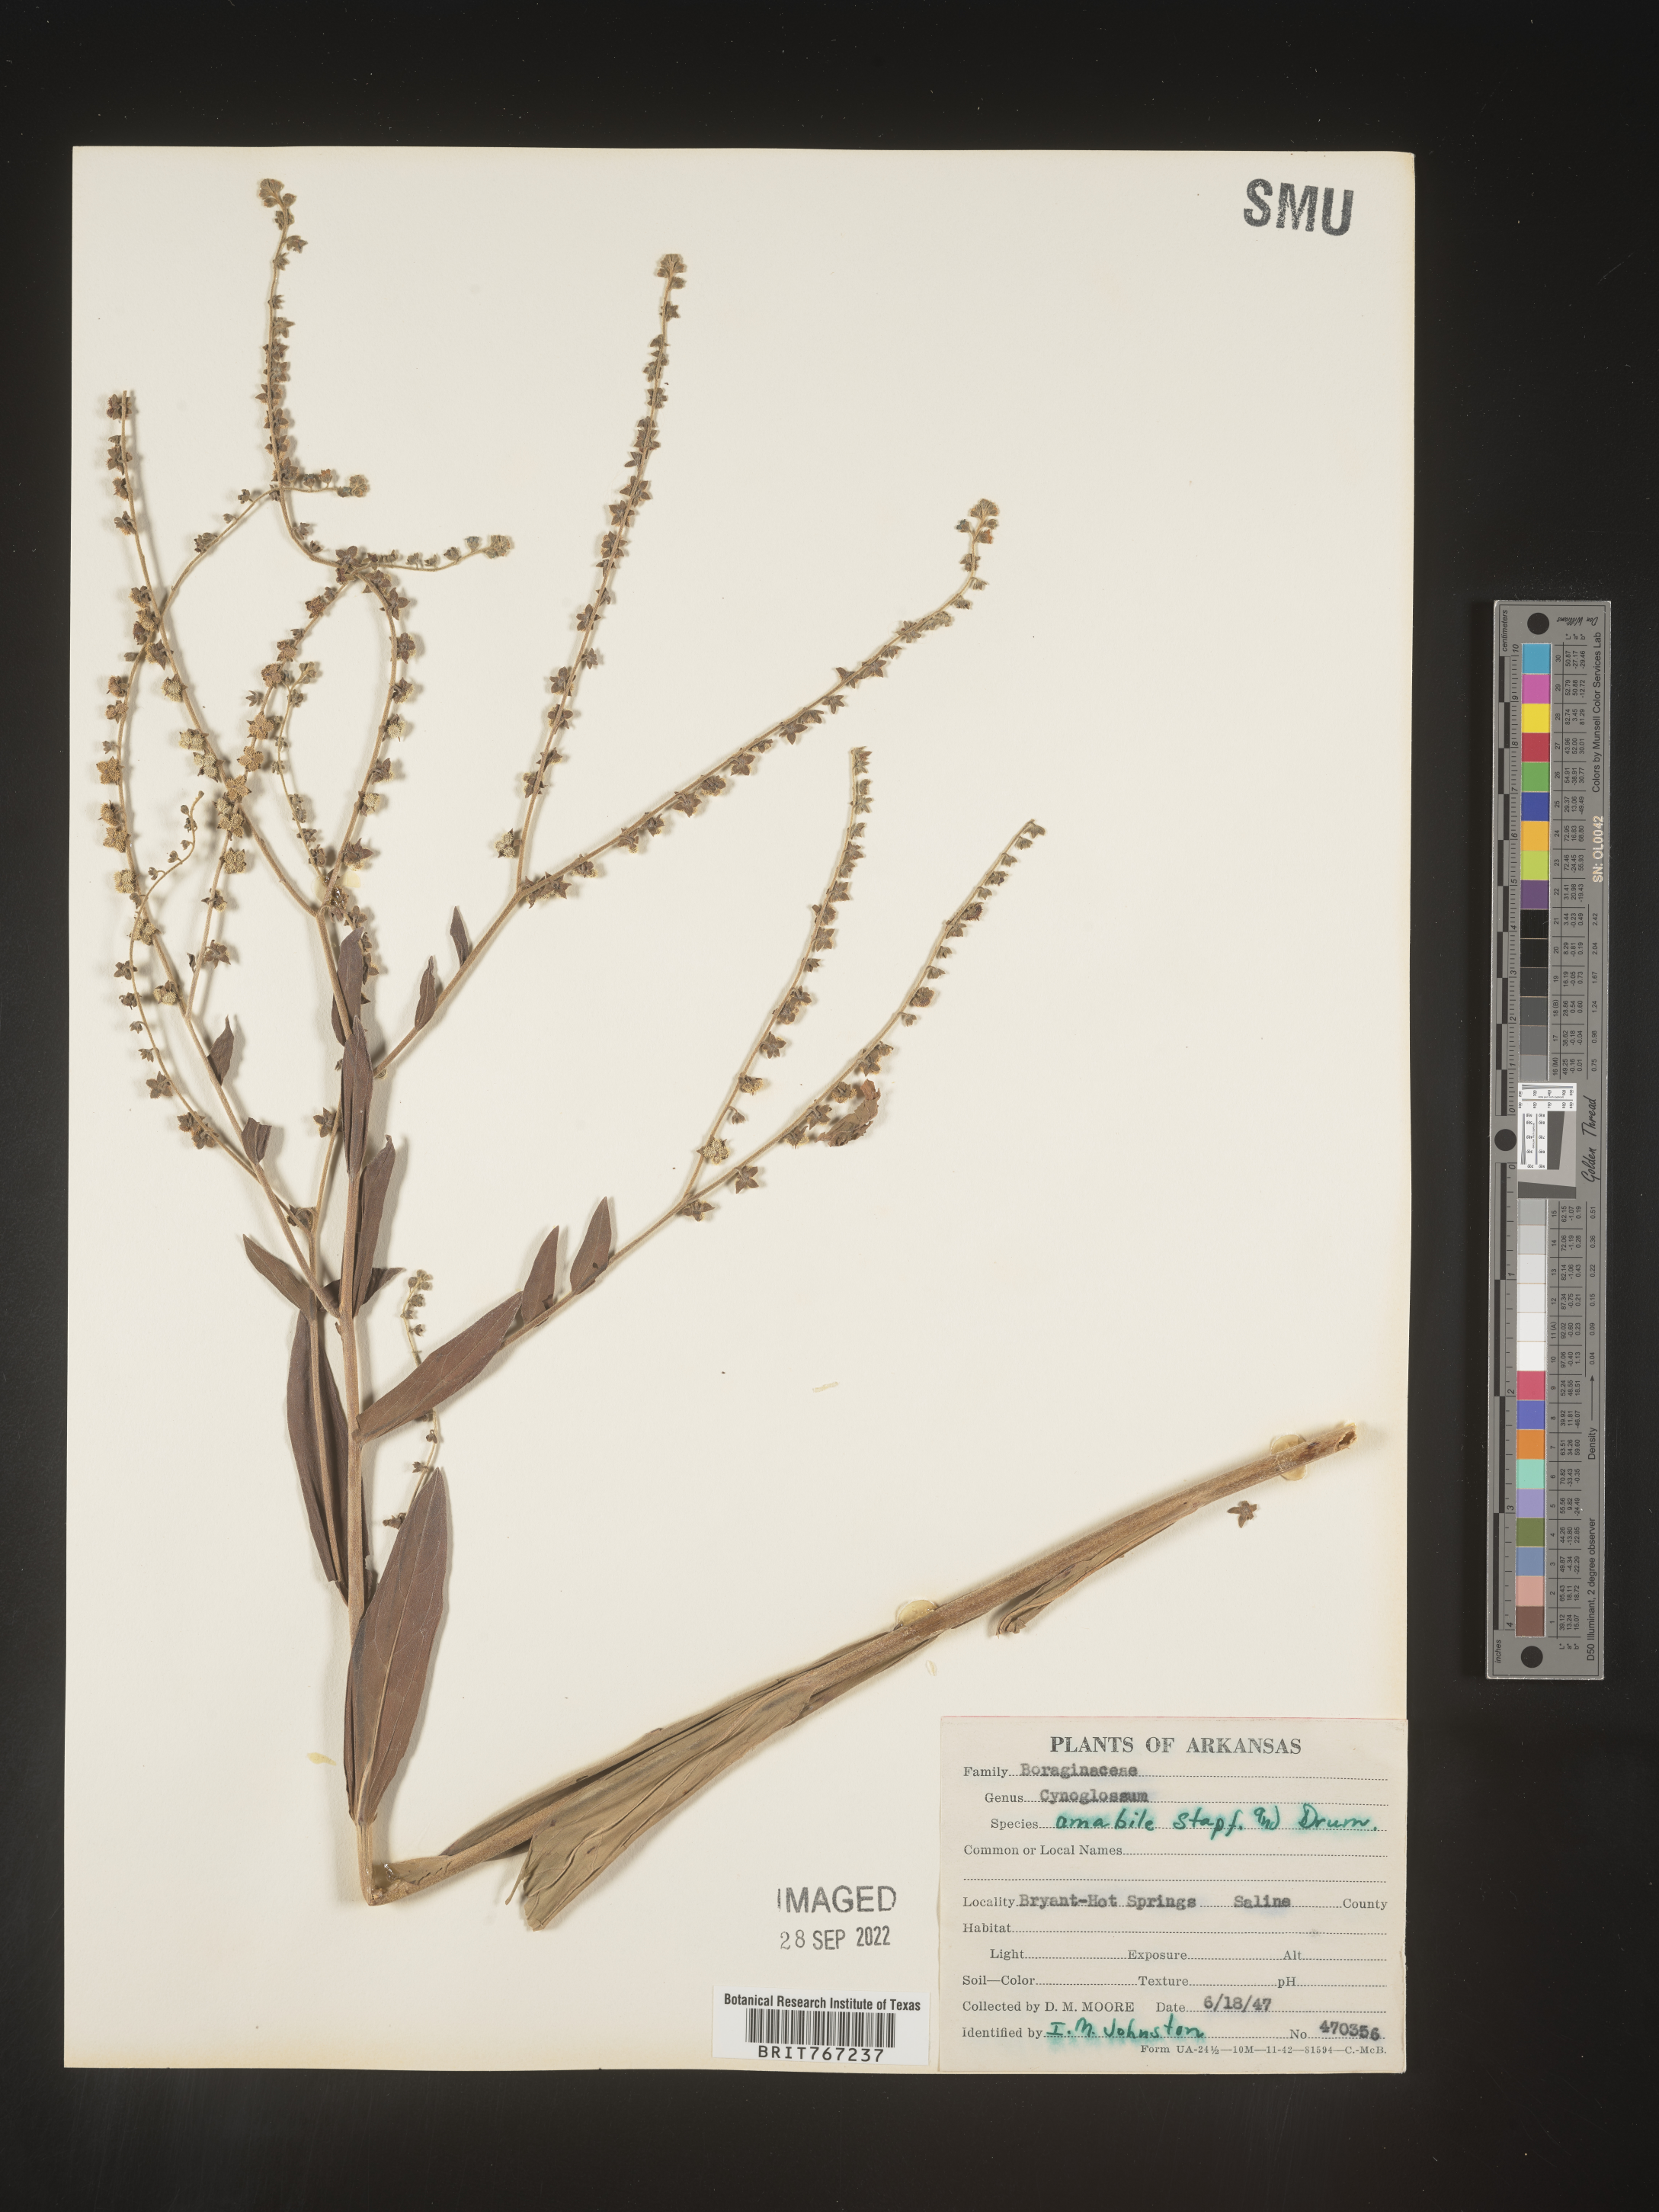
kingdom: Plantae
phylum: Tracheophyta
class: Magnoliopsida
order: Boraginales
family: Boraginaceae
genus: Cynoglossum
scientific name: Cynoglossum
